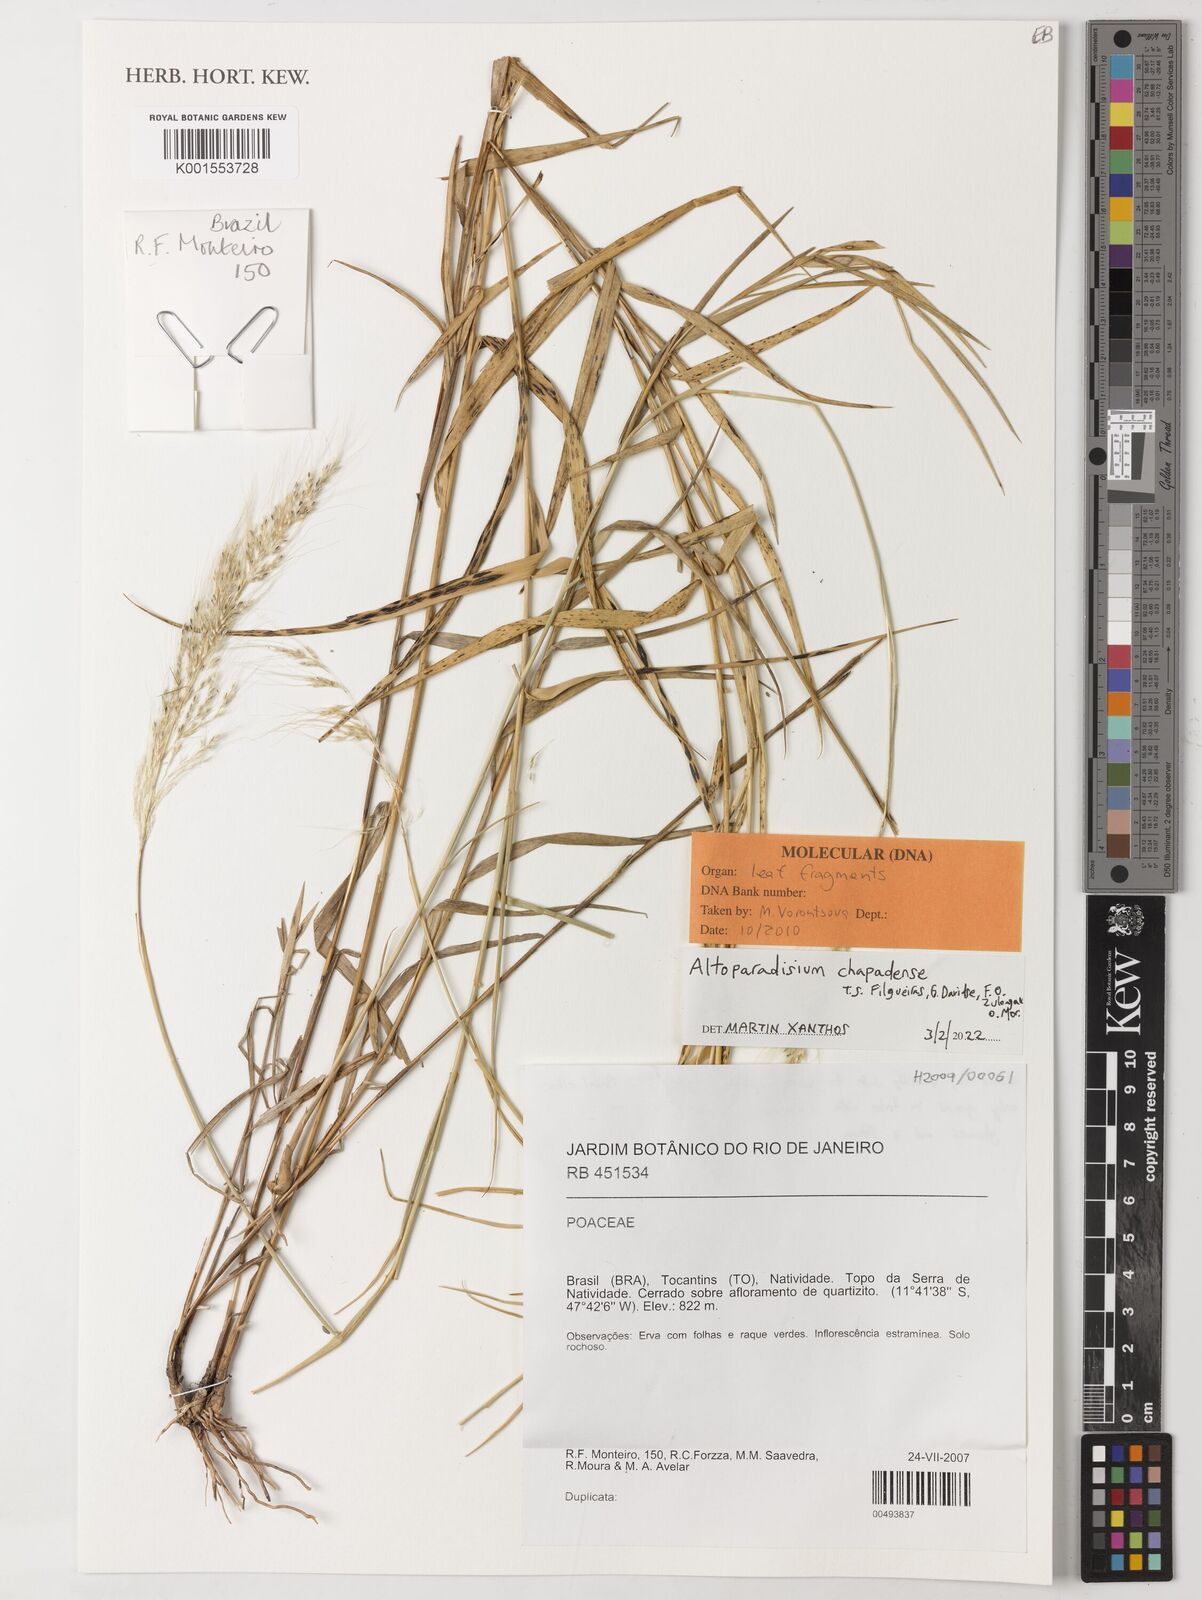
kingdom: Plantae
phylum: Tracheophyta
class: Liliopsida
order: Poales
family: Poaceae
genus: Altoparadisium
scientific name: Altoparadisium chapadense
